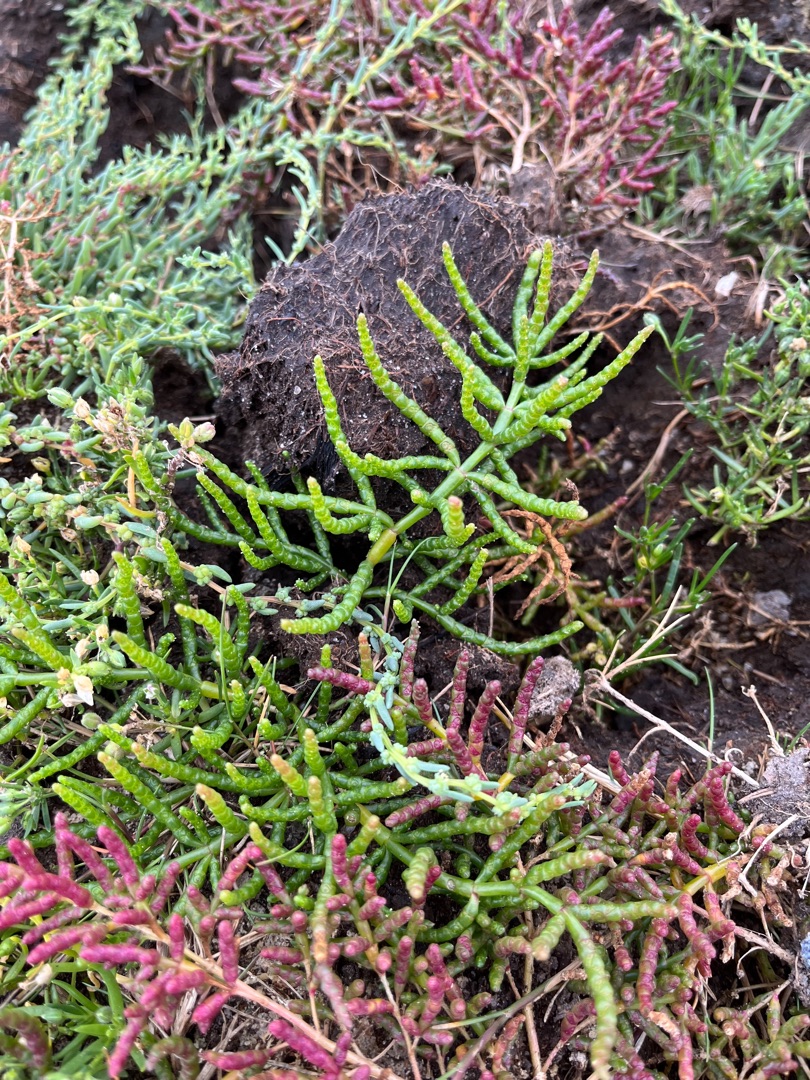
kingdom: Plantae
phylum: Tracheophyta
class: Magnoliopsida
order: Caryophyllales
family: Amaranthaceae
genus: Salicornia
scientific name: Salicornia europaea
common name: Almindelig salturt
